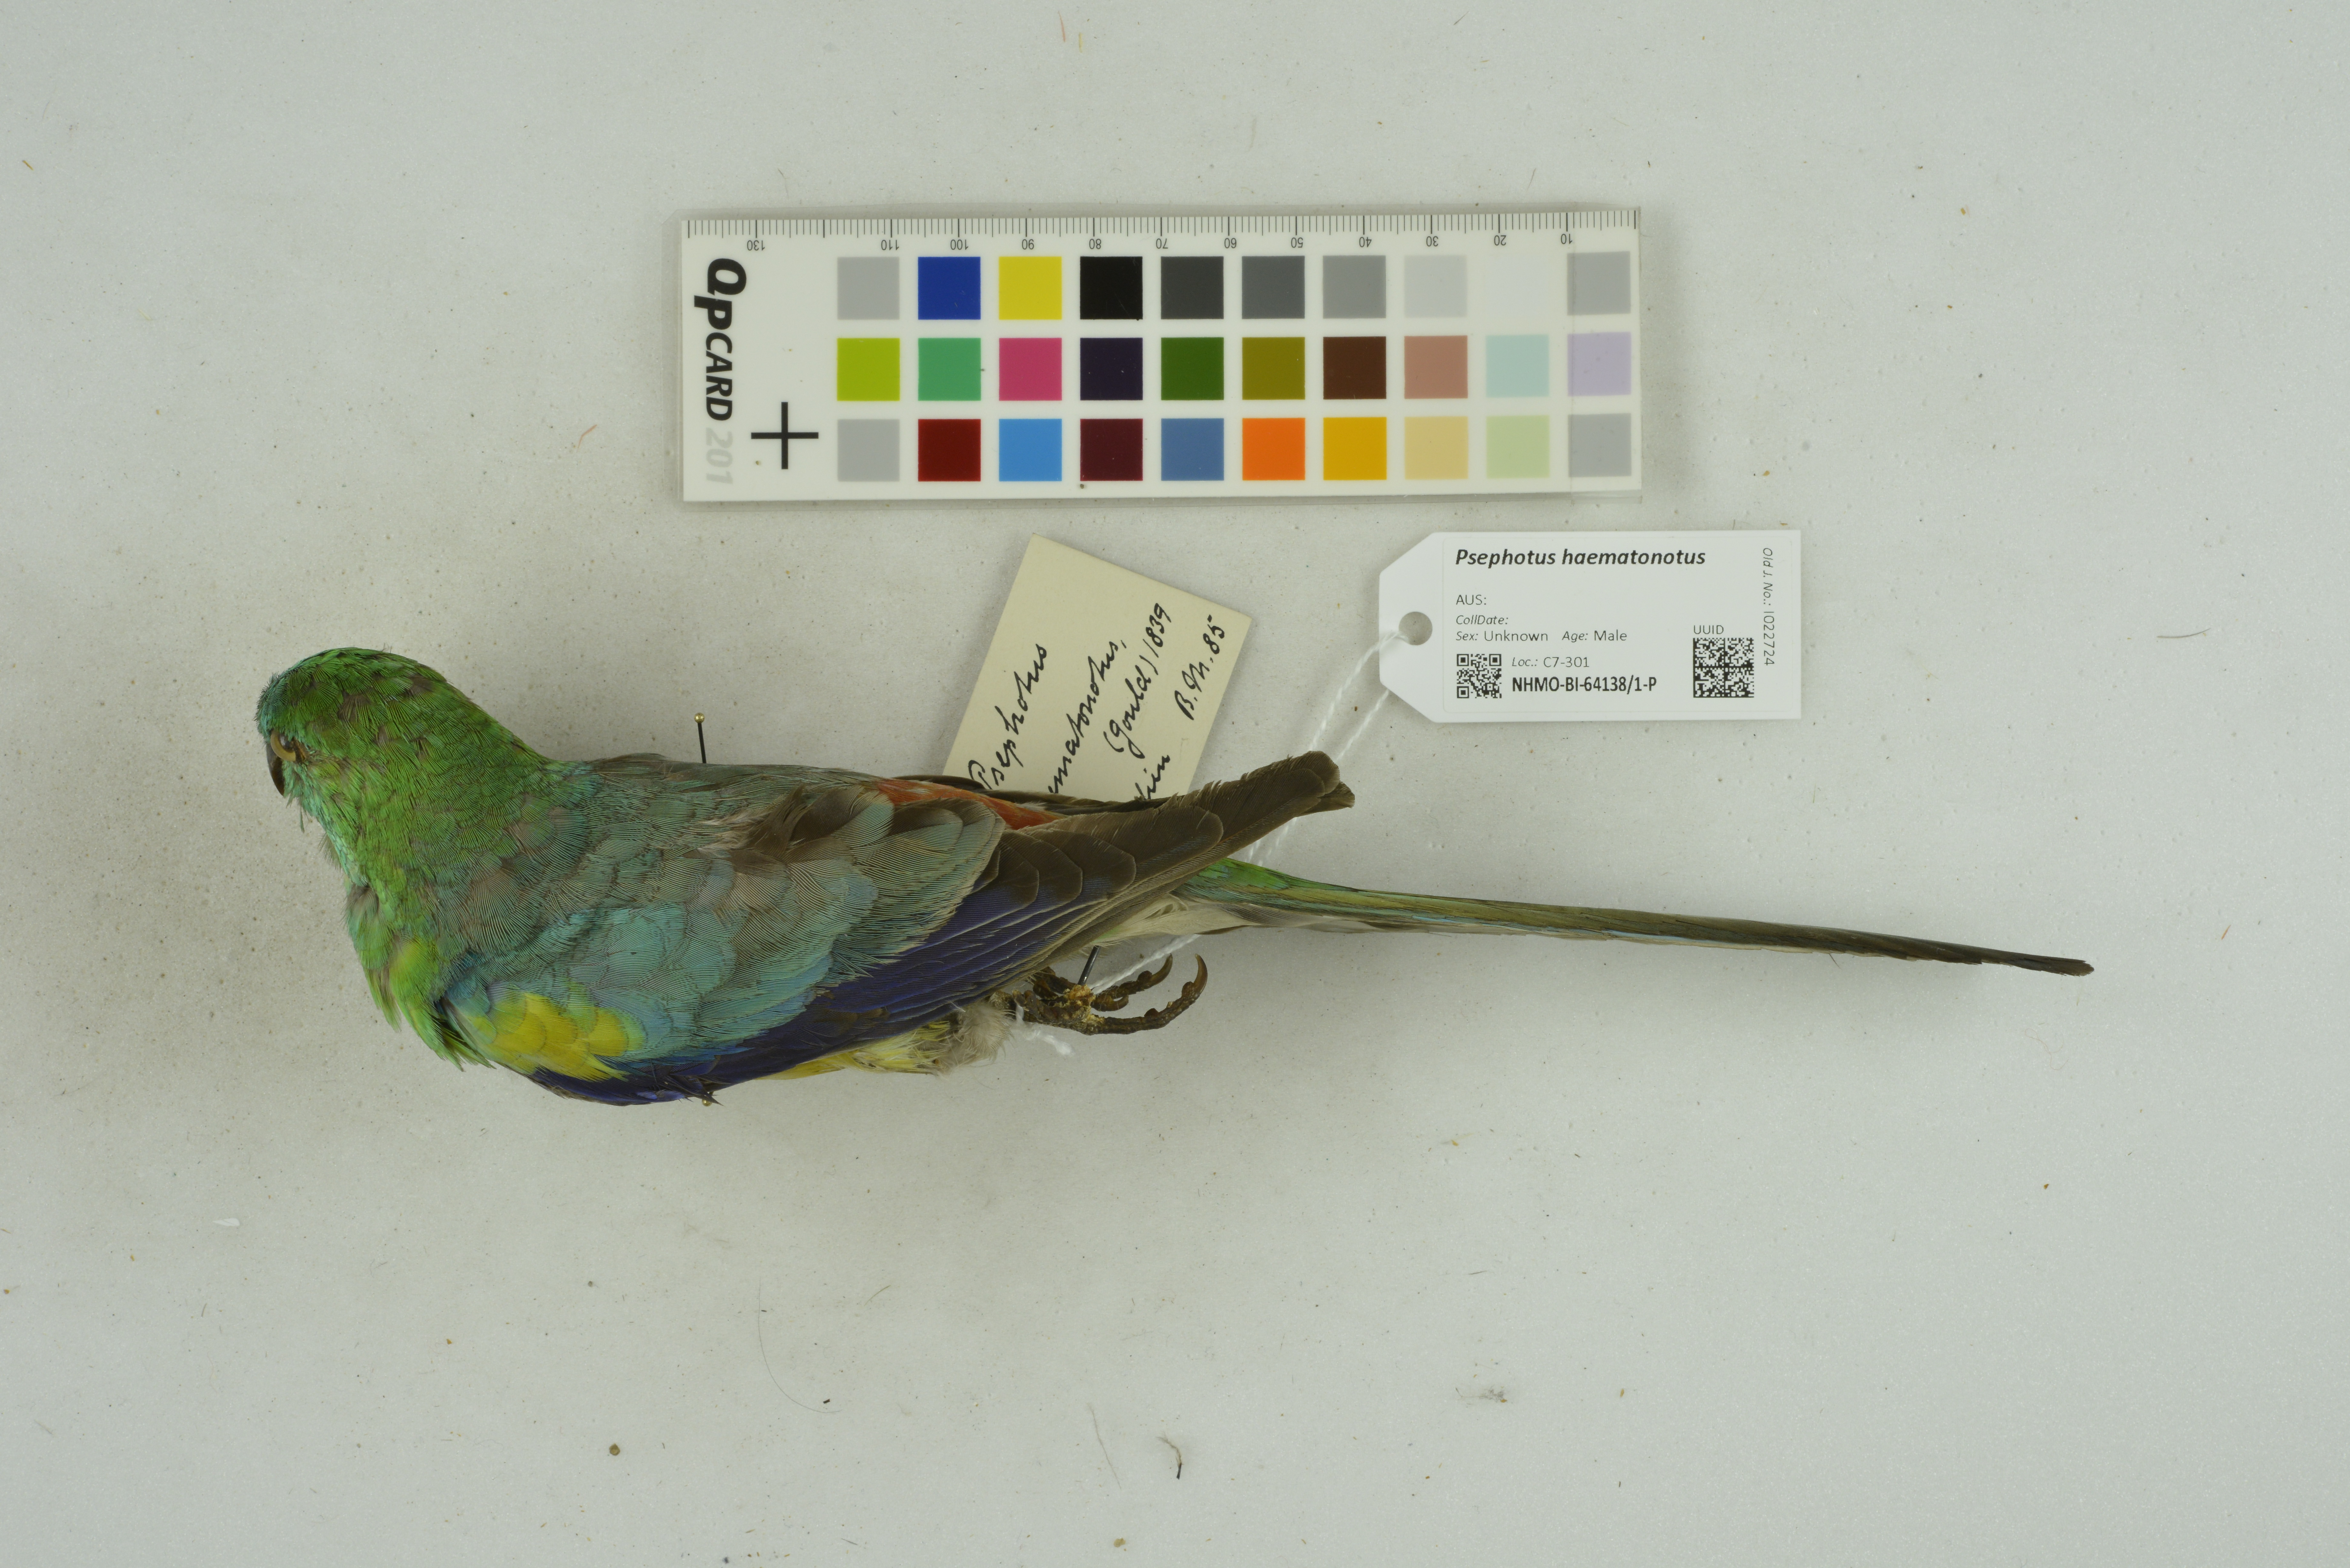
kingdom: Animalia
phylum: Chordata
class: Aves
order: Psittaciformes
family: Psittacidae
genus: Psephotus
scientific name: Psephotus haematonotus
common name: Red-rumped parrot
